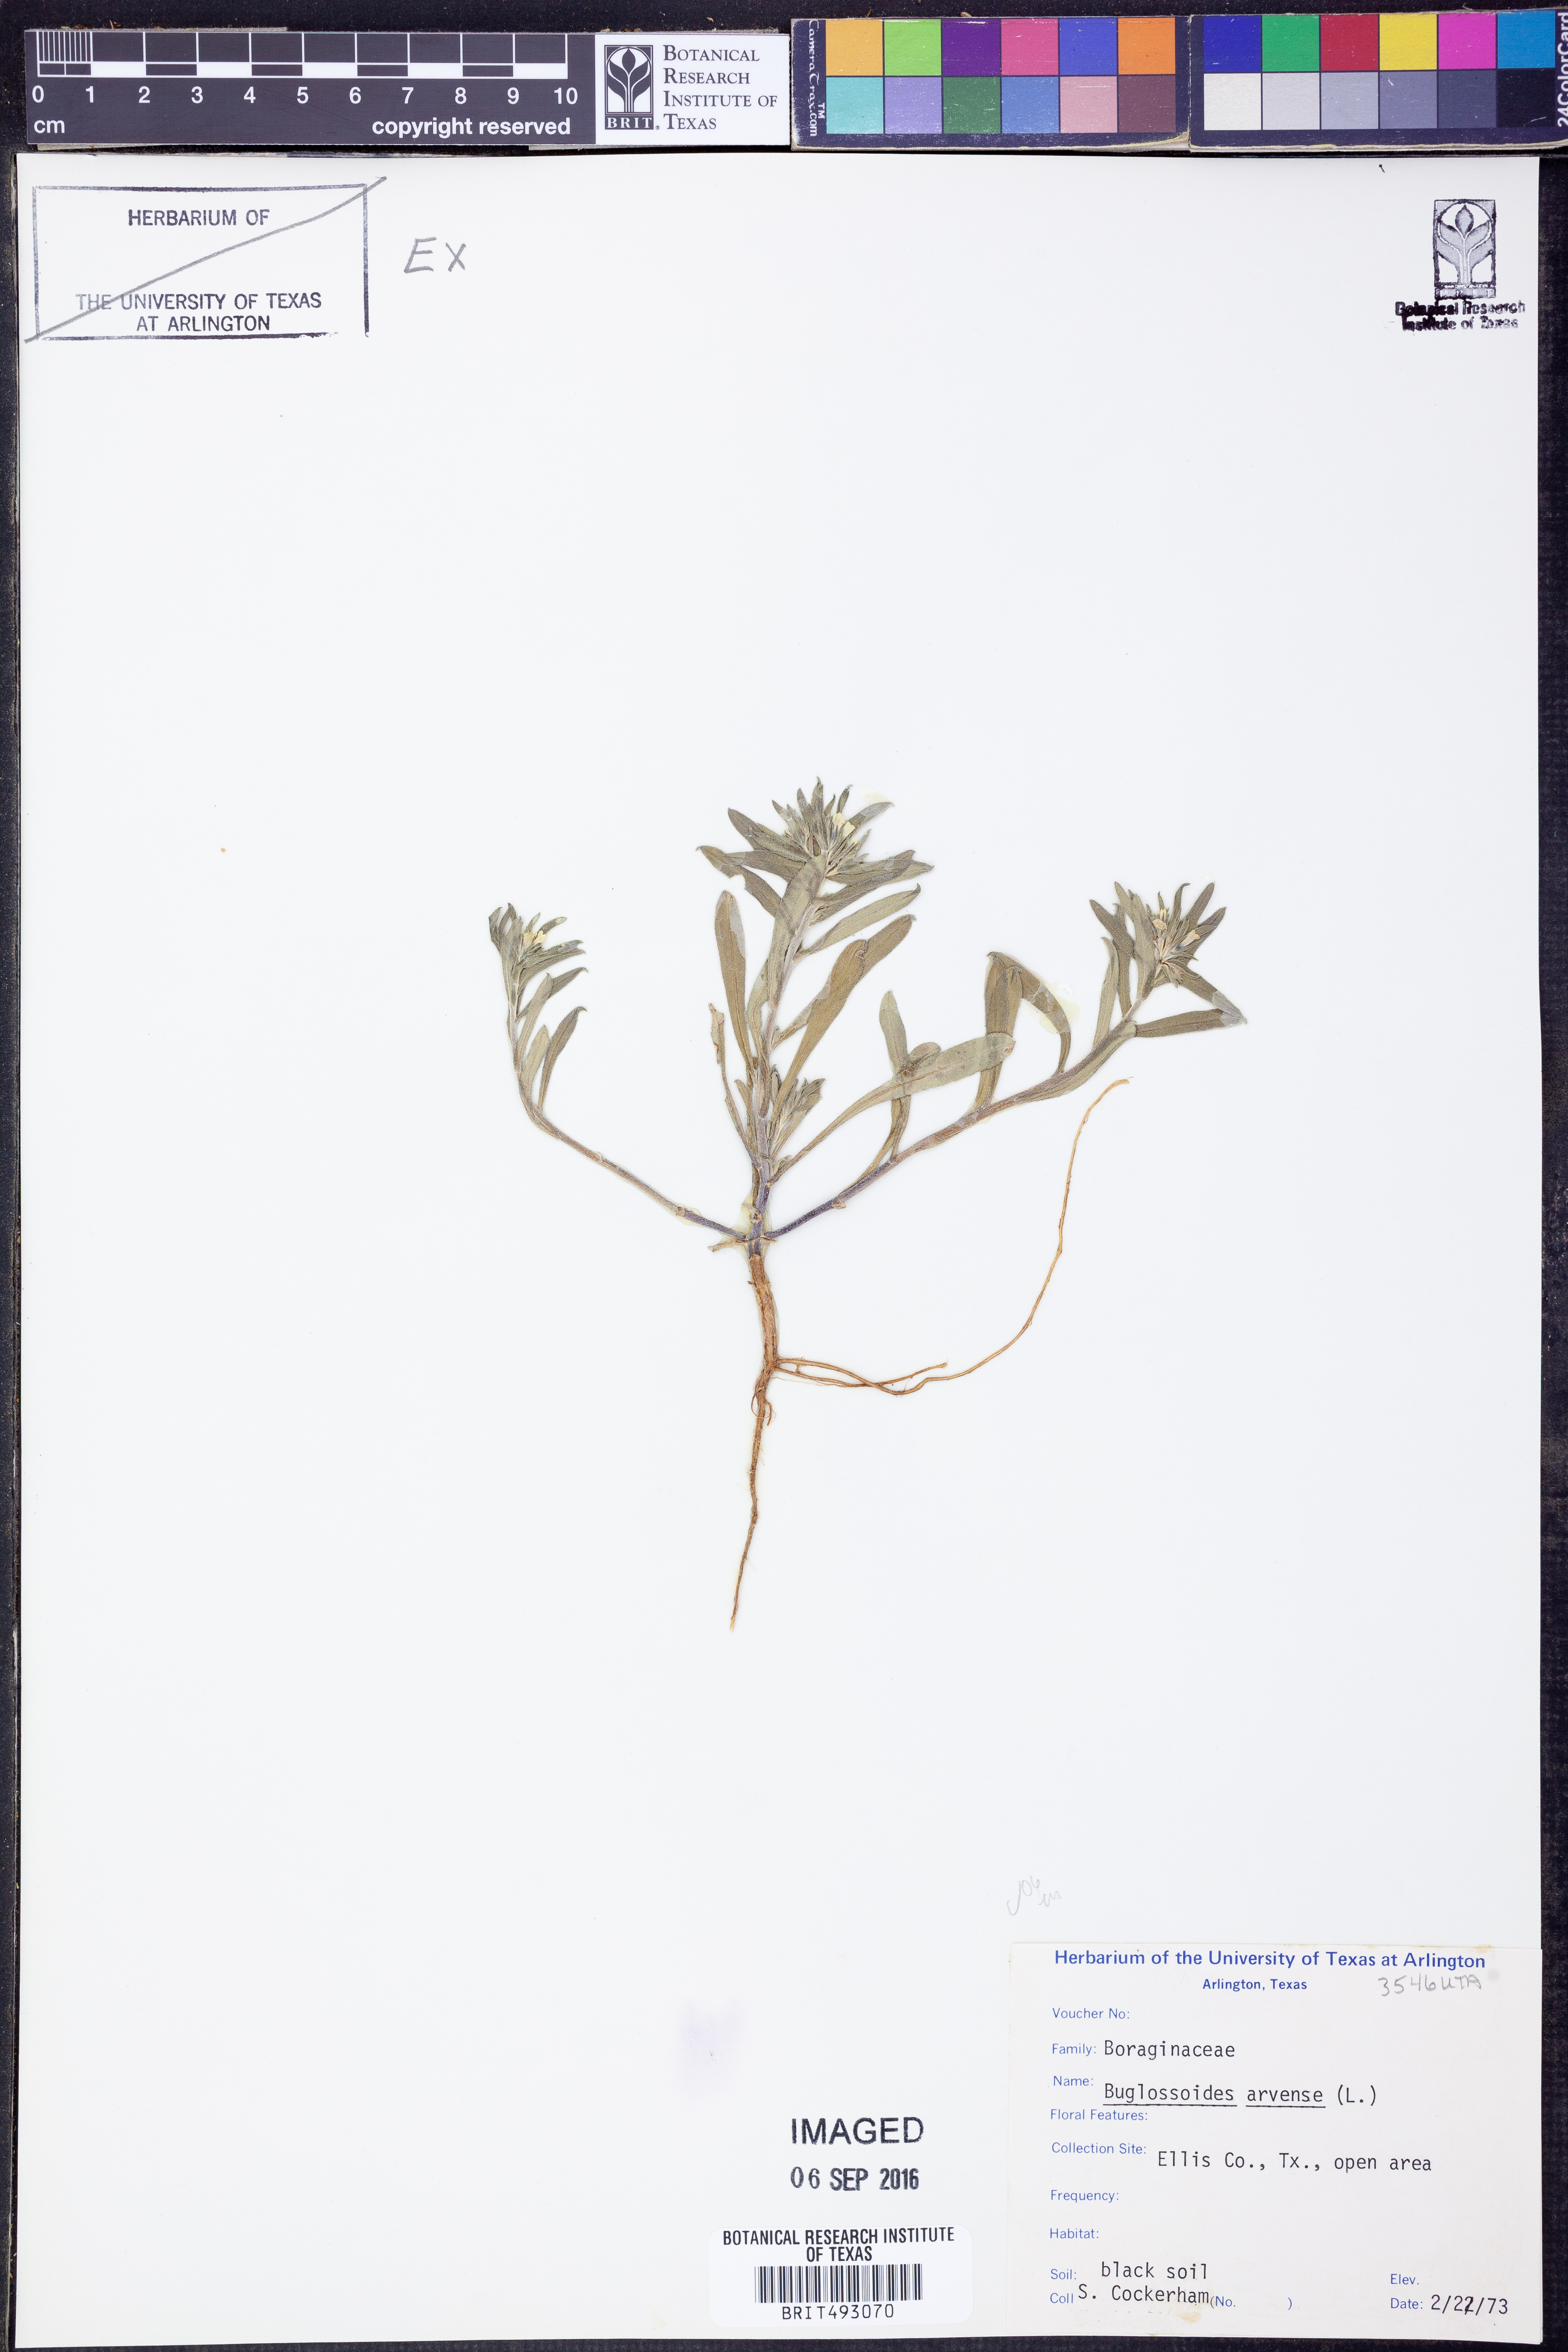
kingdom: Plantae
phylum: Tracheophyta
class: Magnoliopsida
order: Boraginales
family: Boraginaceae
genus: Buglossoides
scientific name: Buglossoides arvensis
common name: Corn gromwell
